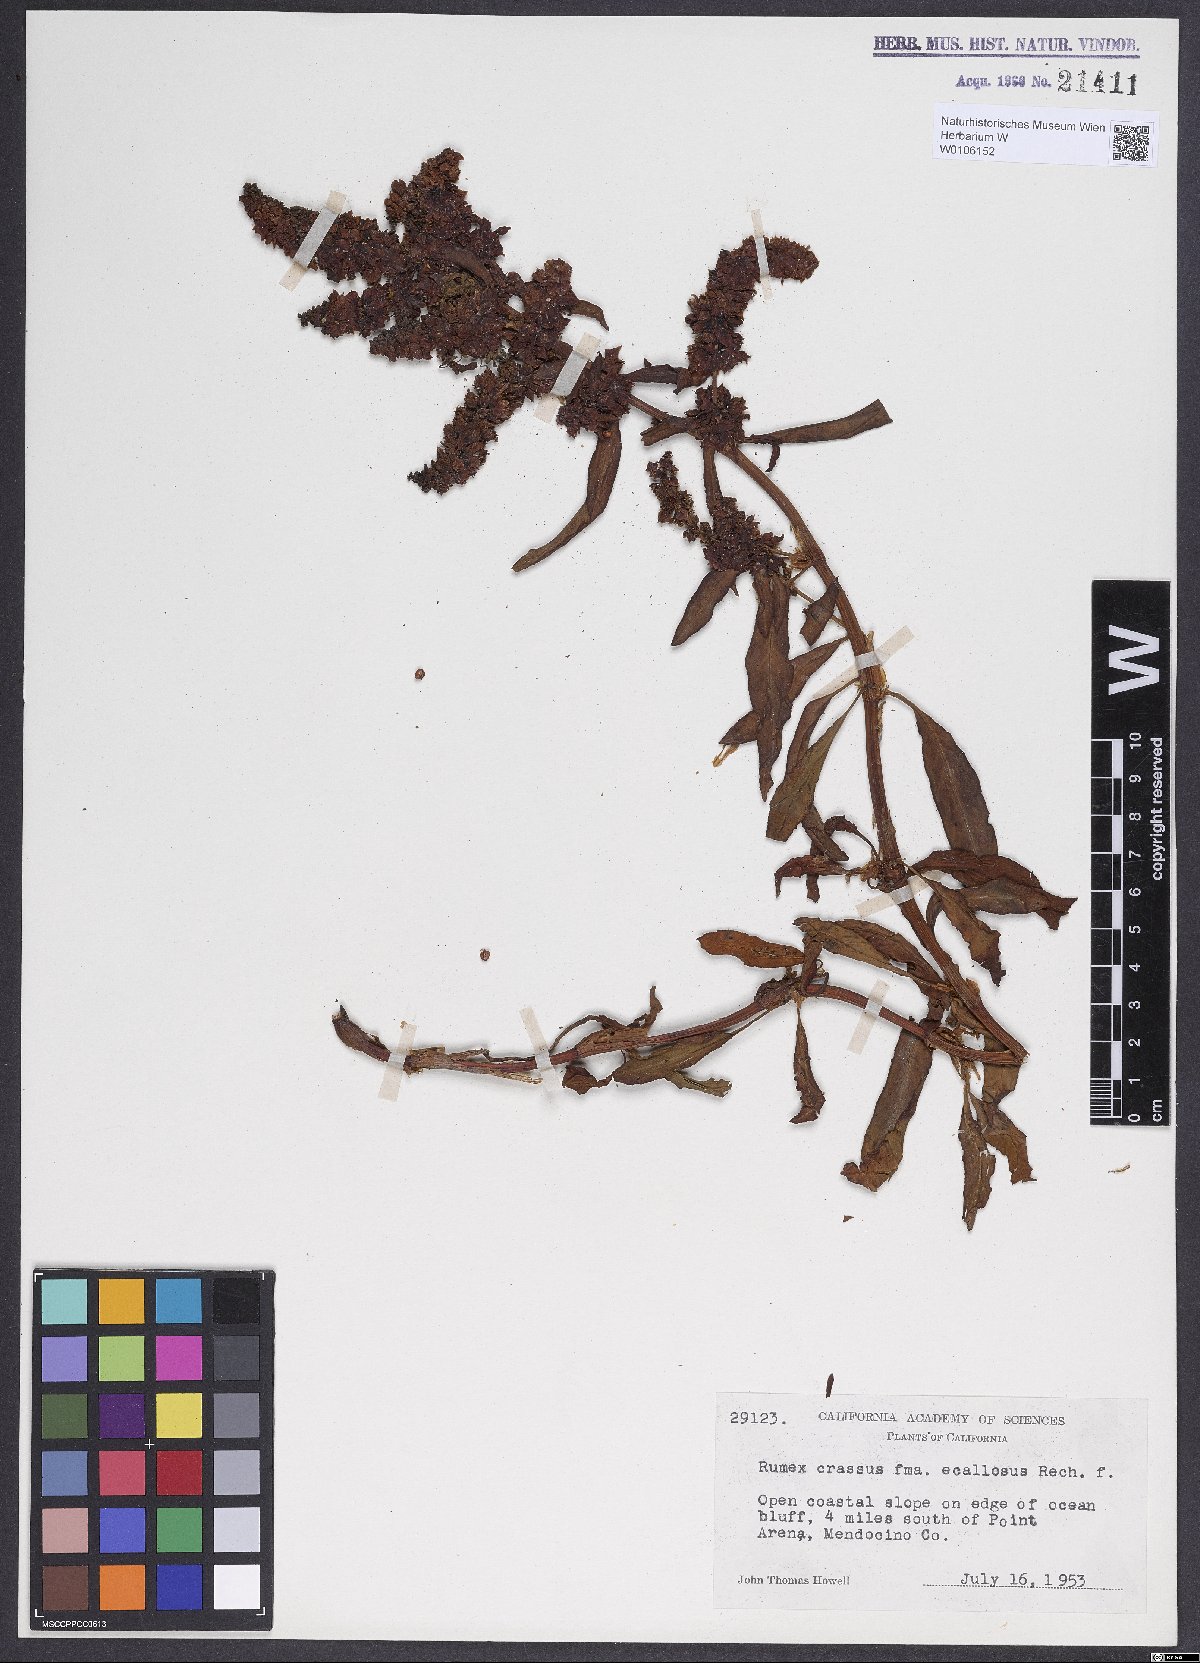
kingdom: Plantae
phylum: Tracheophyta
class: Magnoliopsida
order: Caryophyllales
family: Polygonaceae
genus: Rumex
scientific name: Rumex crassus
